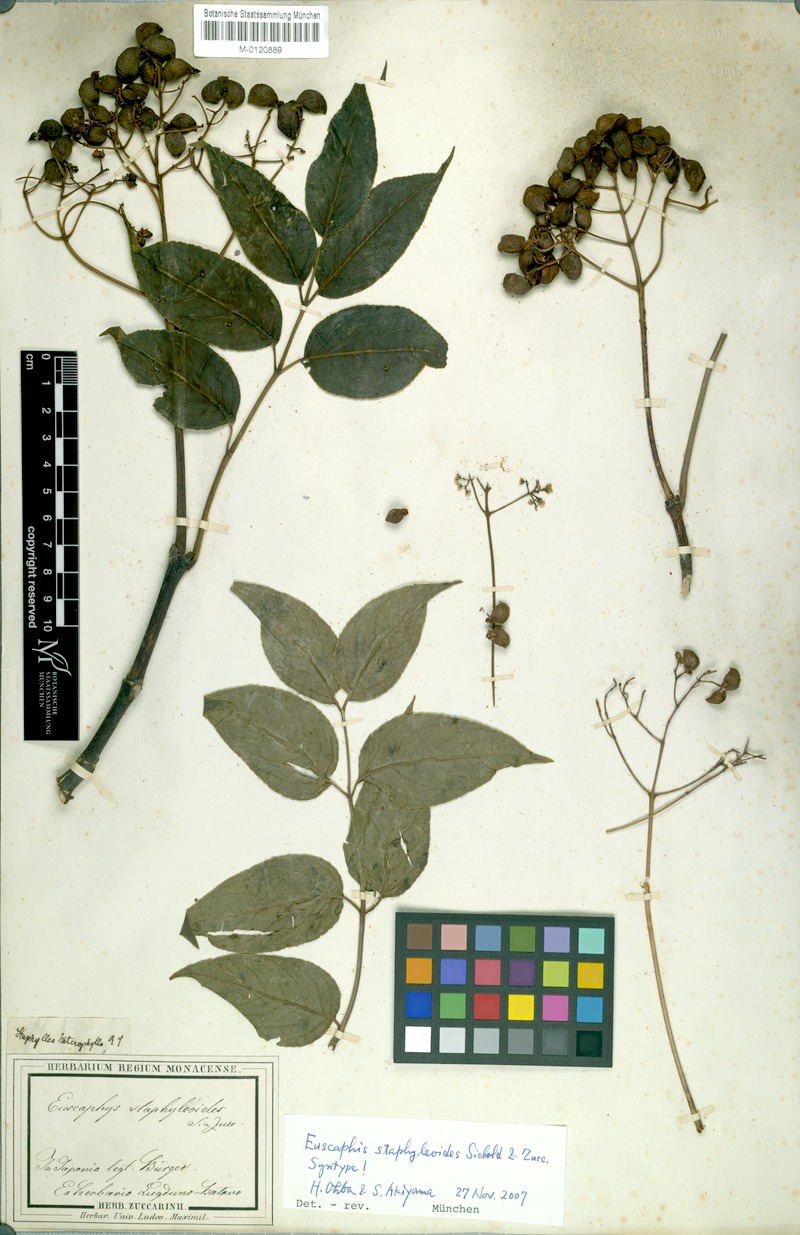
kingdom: Plantae
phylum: Tracheophyta
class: Magnoliopsida
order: Crossosomatales
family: Staphyleaceae
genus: Staphylea
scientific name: Staphylea japonica
